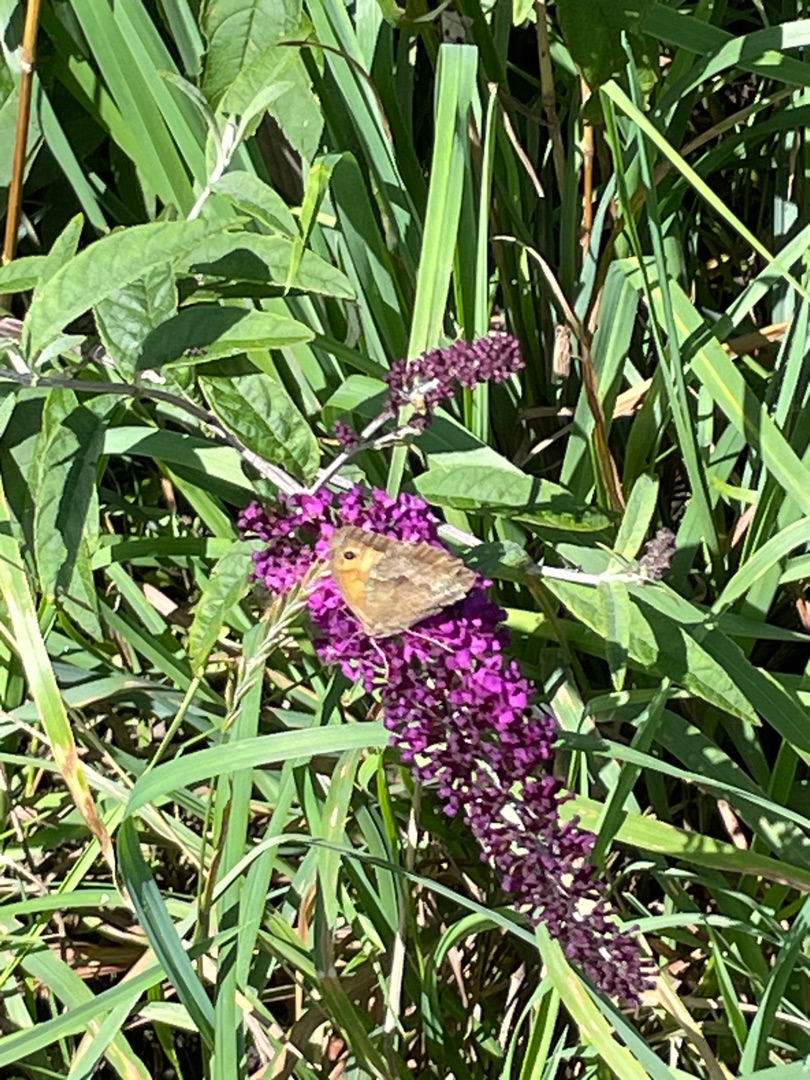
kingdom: Animalia
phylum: Arthropoda
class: Insecta
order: Lepidoptera
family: Nymphalidae
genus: Maniola
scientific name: Maniola jurtina
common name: Græsrandøje
